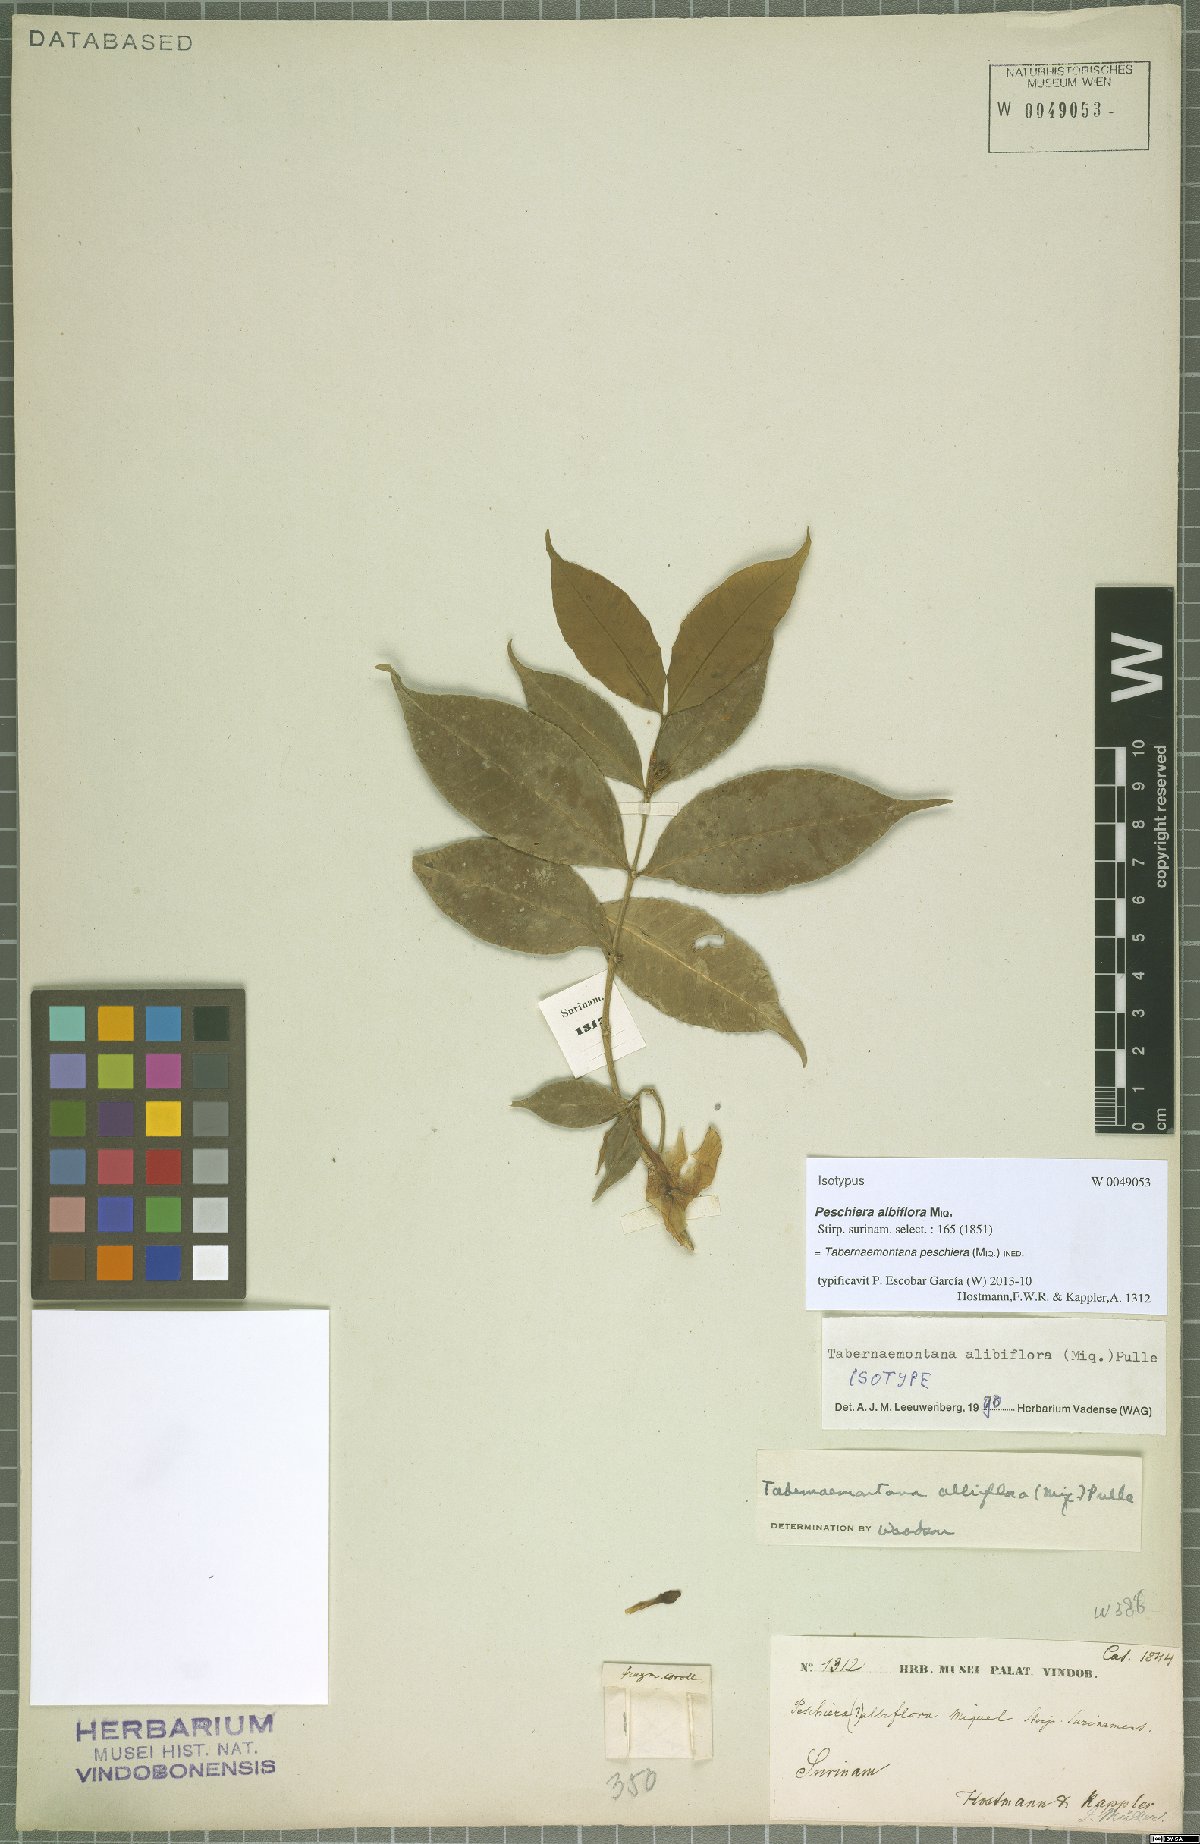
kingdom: Plantae
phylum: Tracheophyta
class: Magnoliopsida
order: Gentianales
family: Apocynaceae
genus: Tabernaemontana
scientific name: Tabernaemontana peschiera
